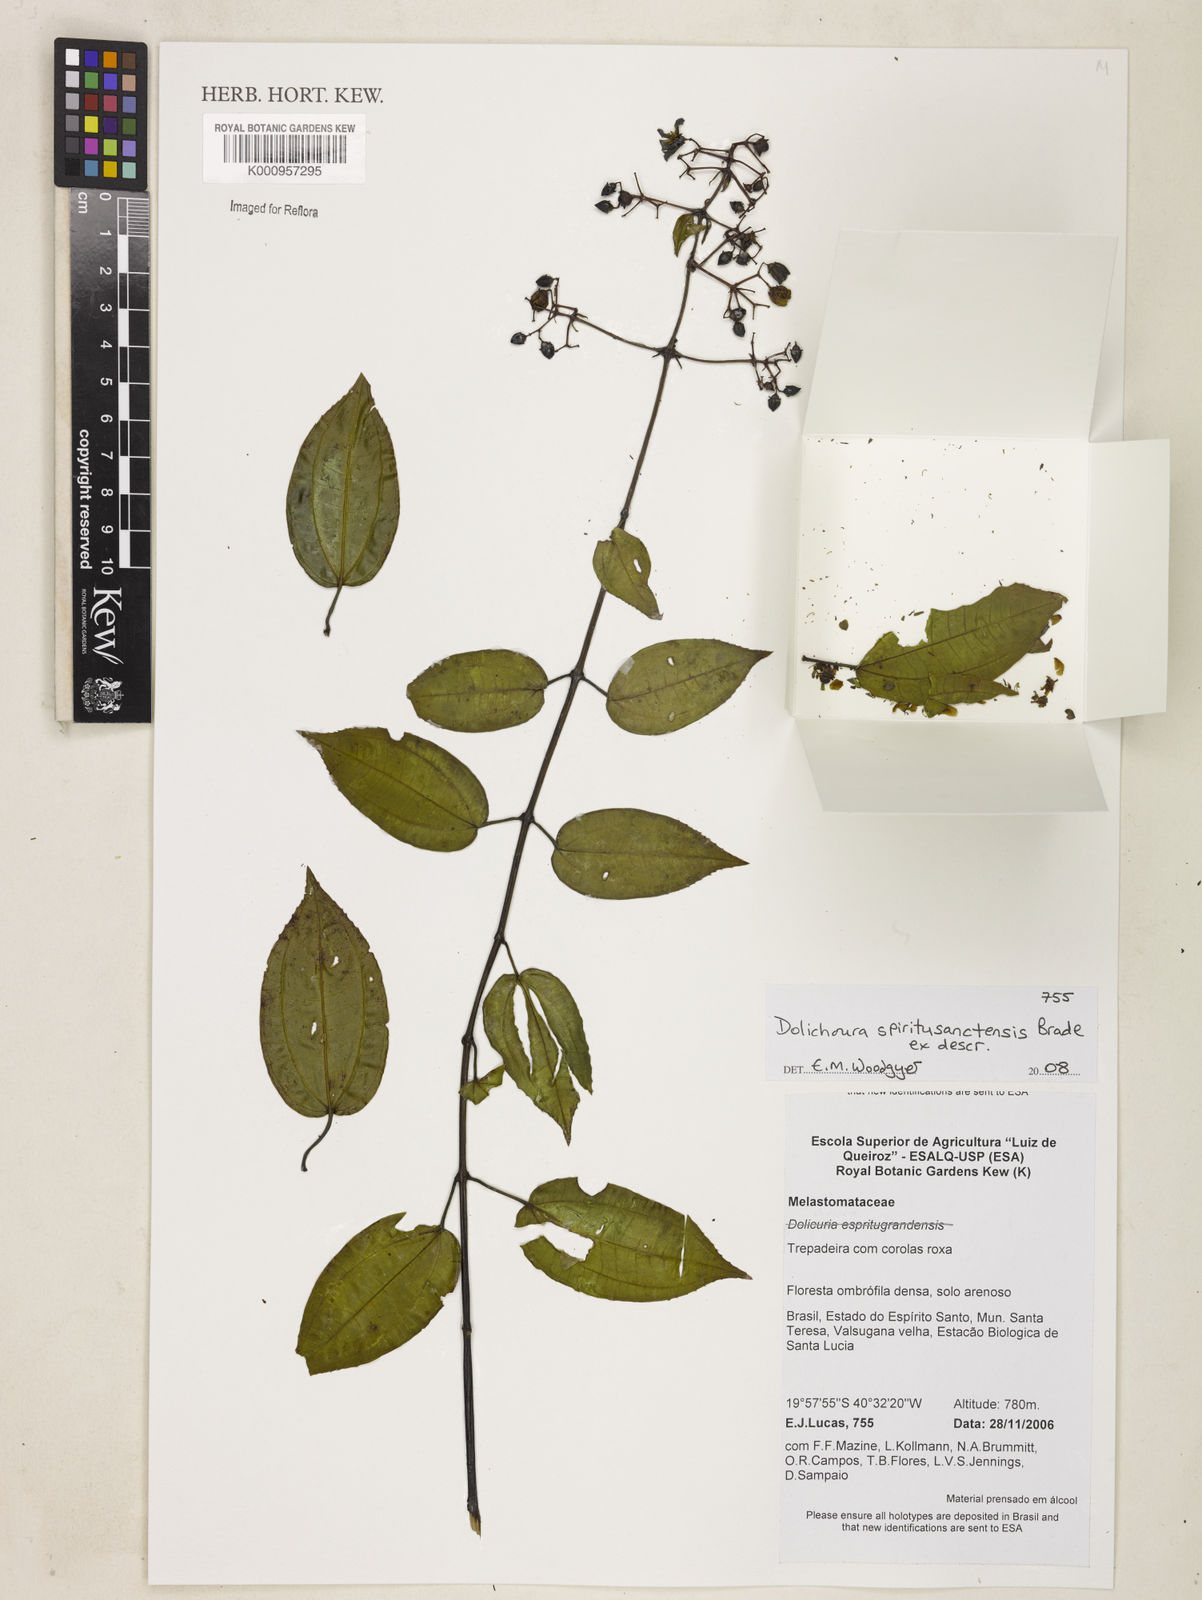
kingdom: Plantae
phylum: Tracheophyta
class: Magnoliopsida
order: Myrtales
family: Melastomataceae
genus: Huberia
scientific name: Huberia bradeana
